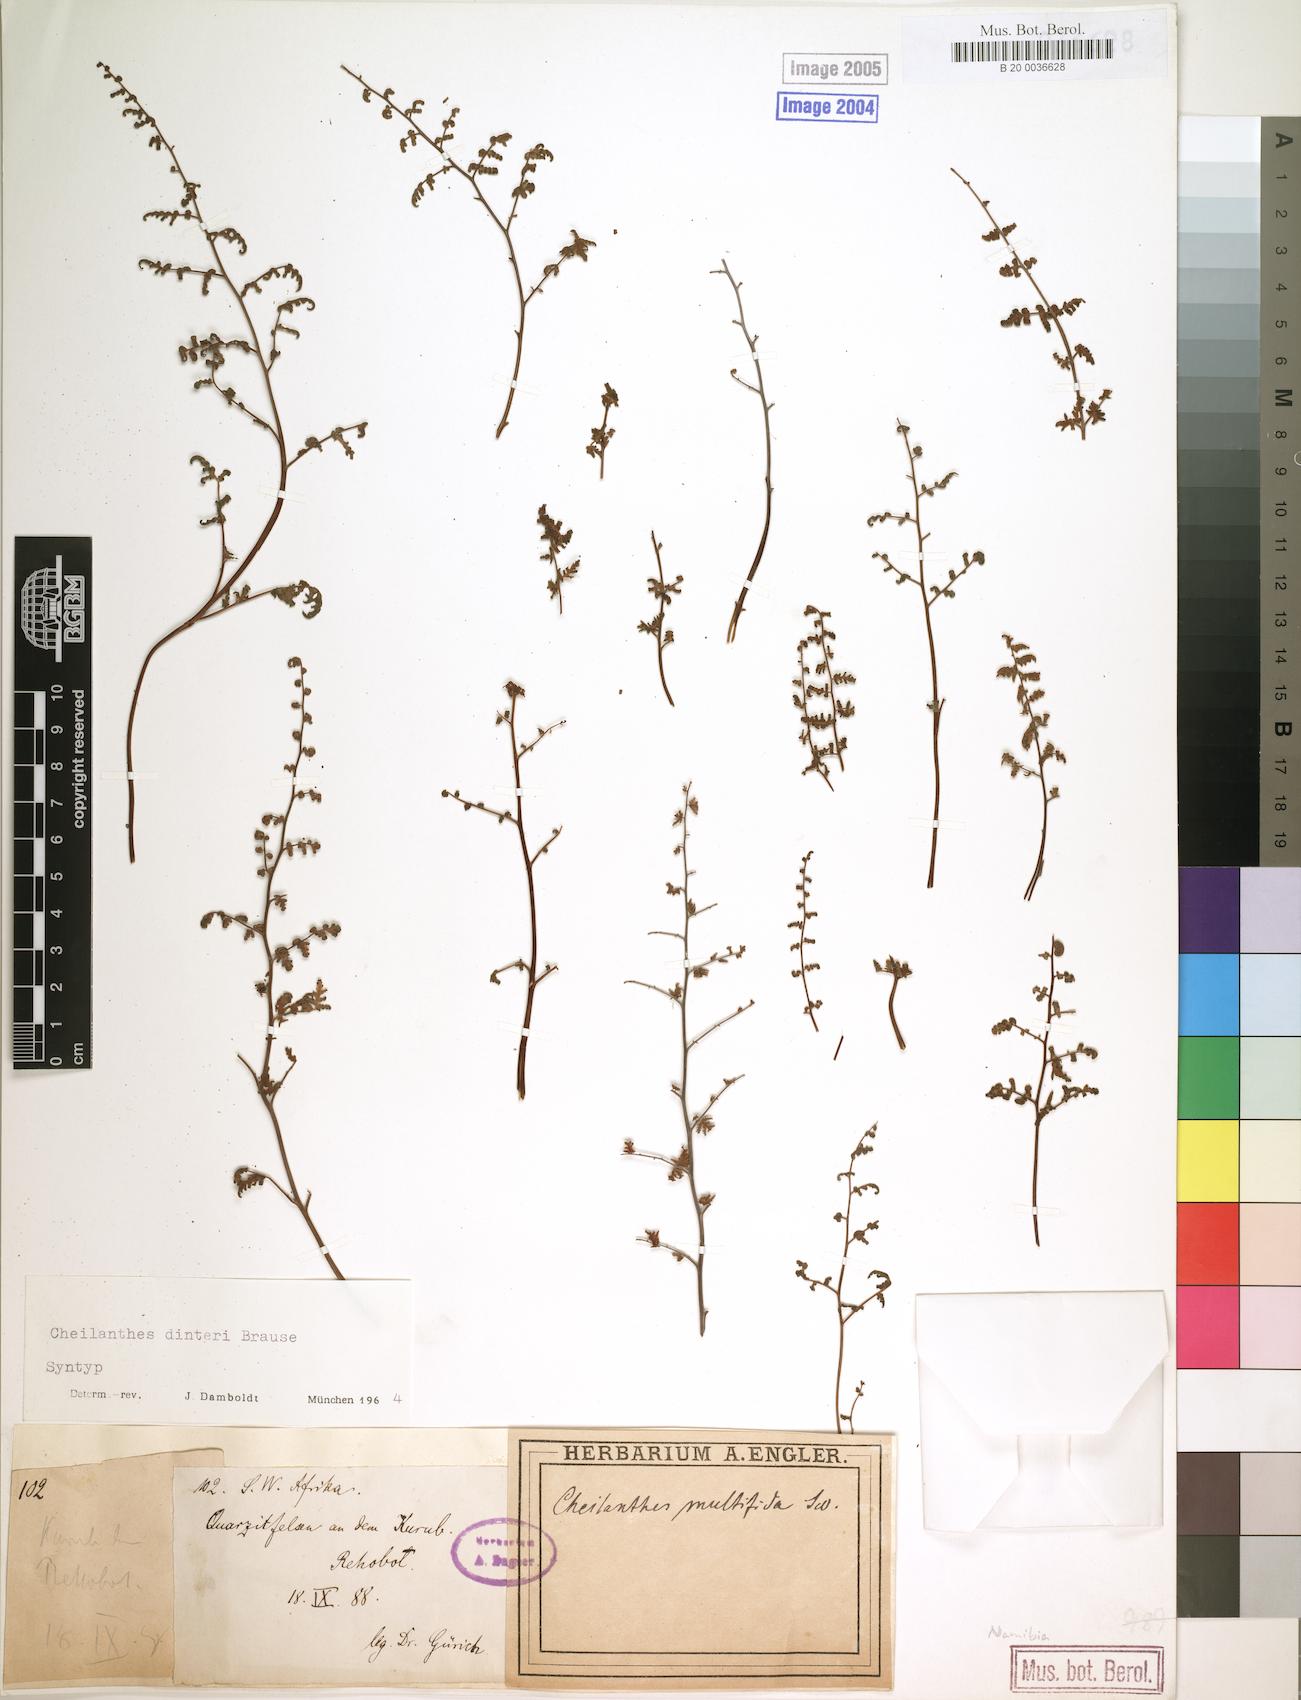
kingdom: Plantae
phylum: Tracheophyta
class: Polypodiopsida
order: Polypodiales
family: Pteridaceae
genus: Cheilanthes
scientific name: Cheilanthes dinteri
